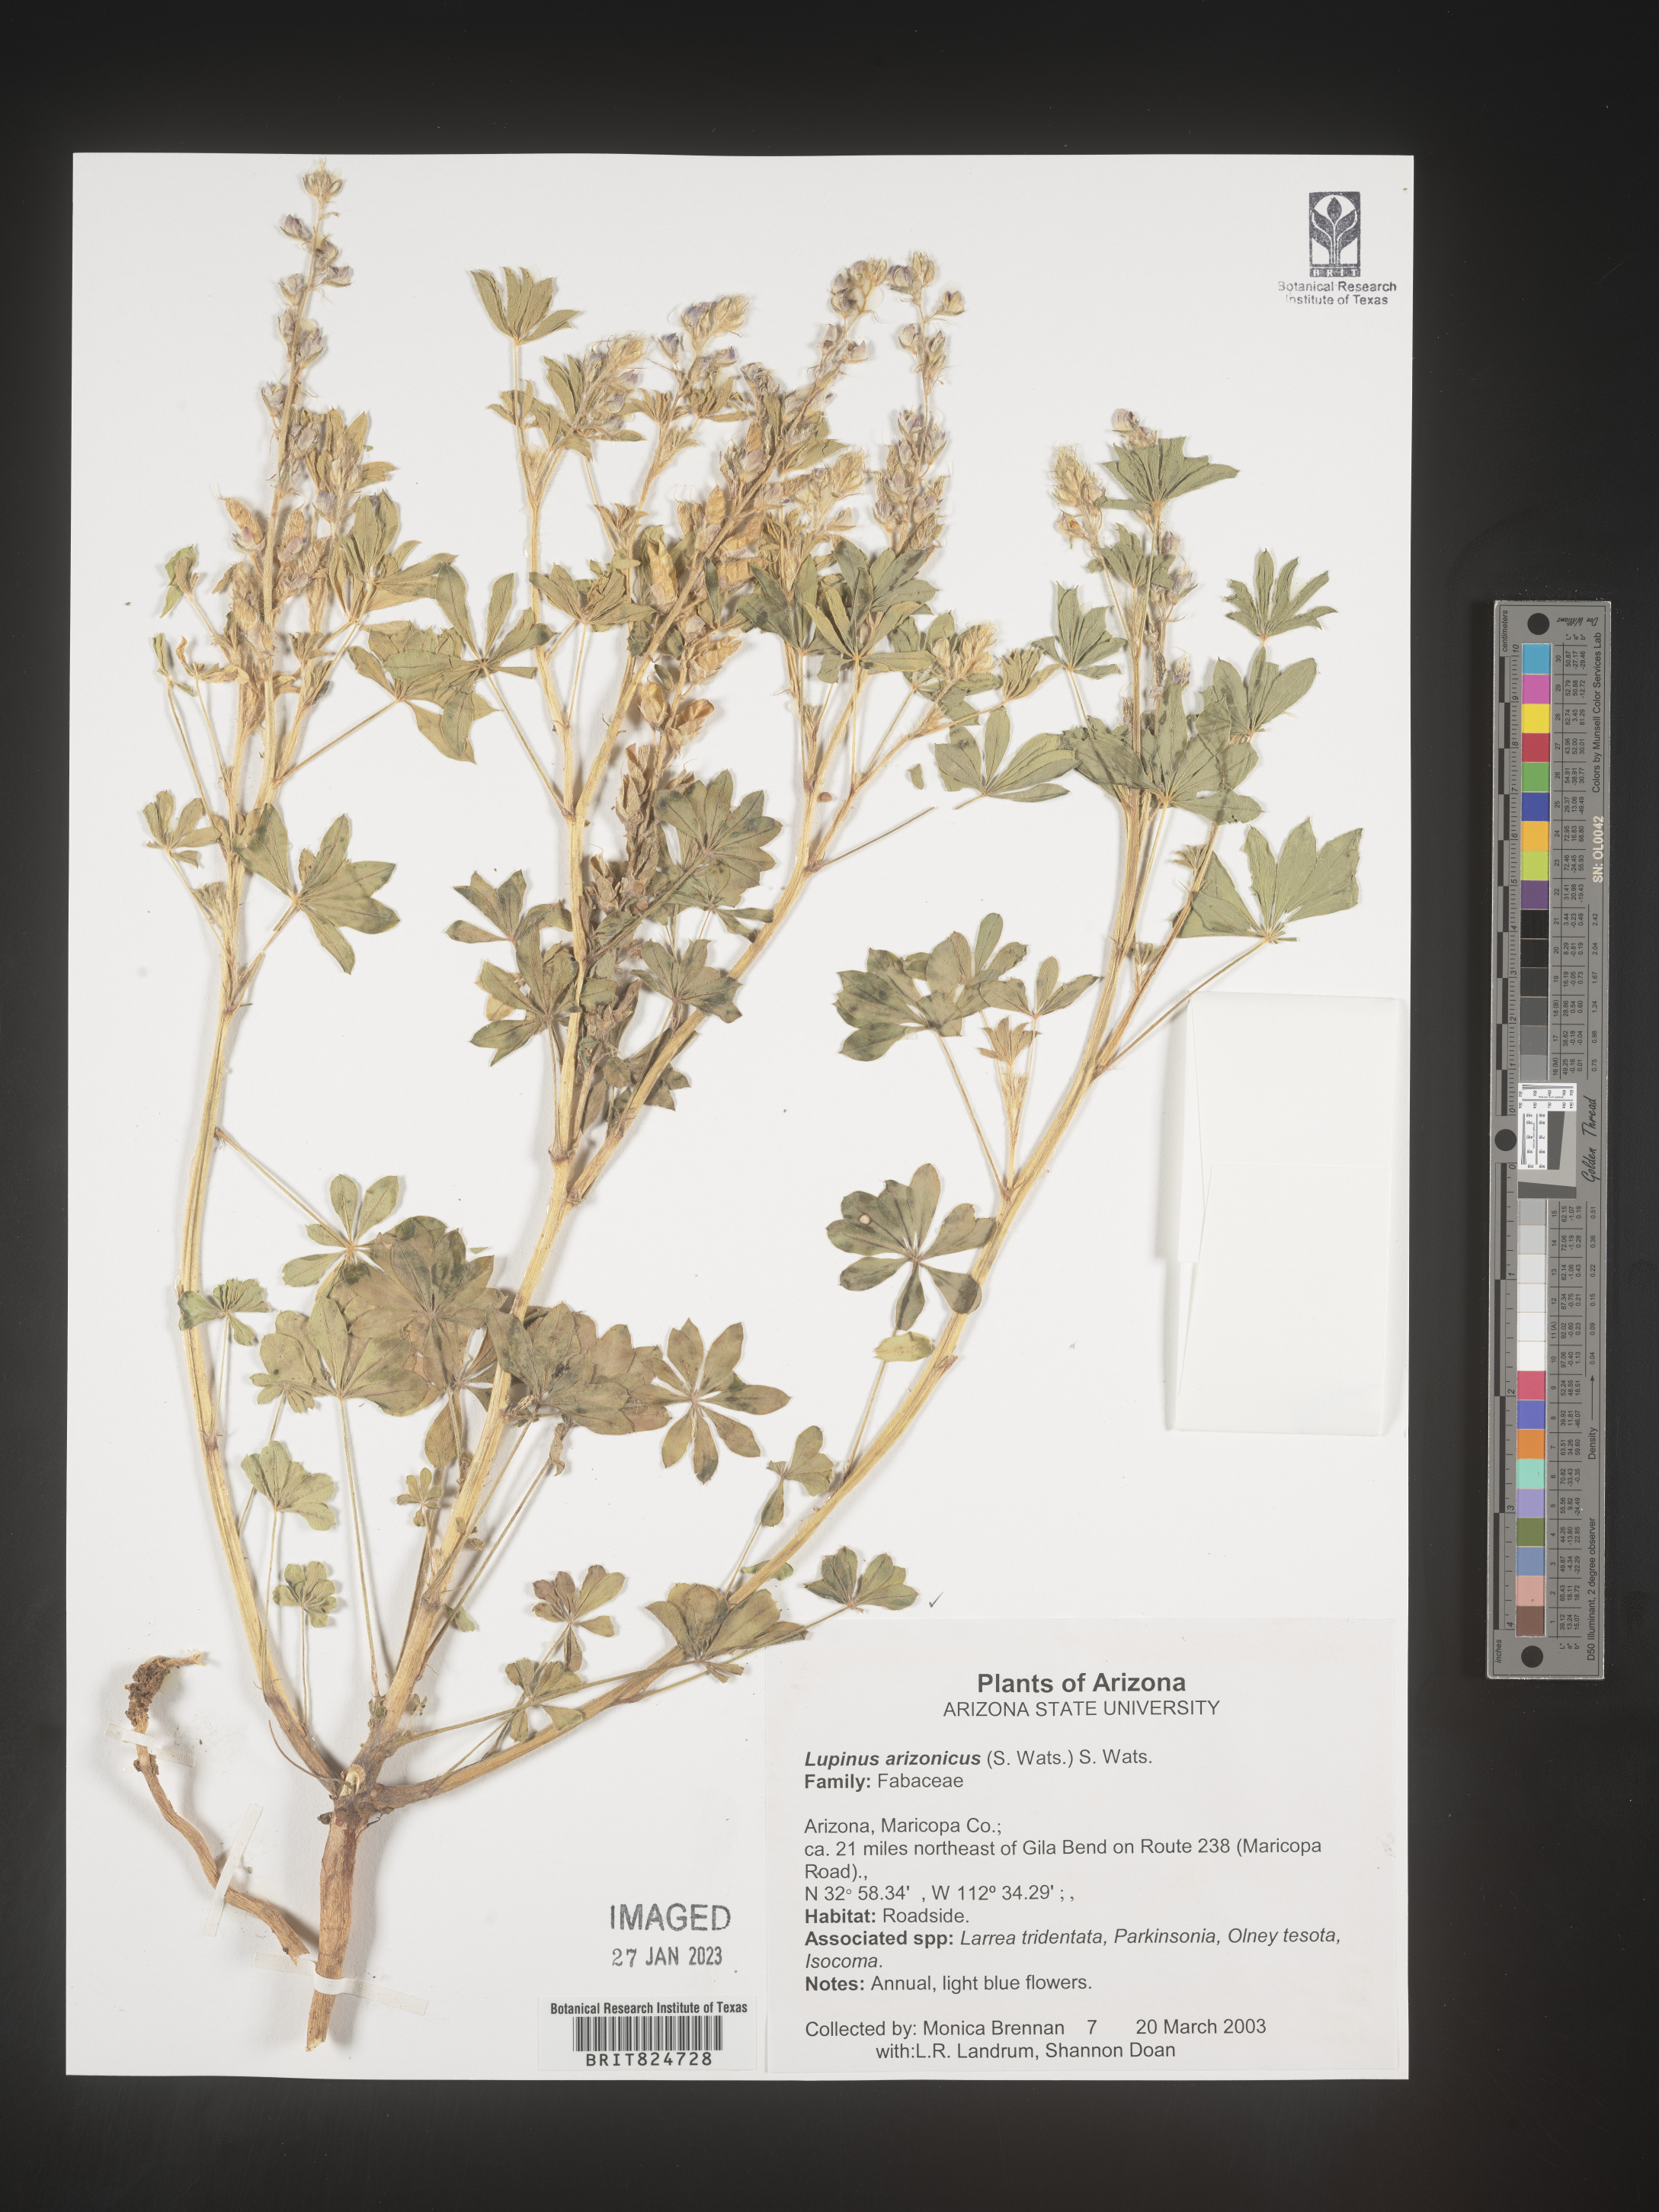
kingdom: Plantae
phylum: Tracheophyta
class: Magnoliopsida
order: Fabales
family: Fabaceae
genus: Lupinus
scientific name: Lupinus arizonicus
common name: Arizona lupine
